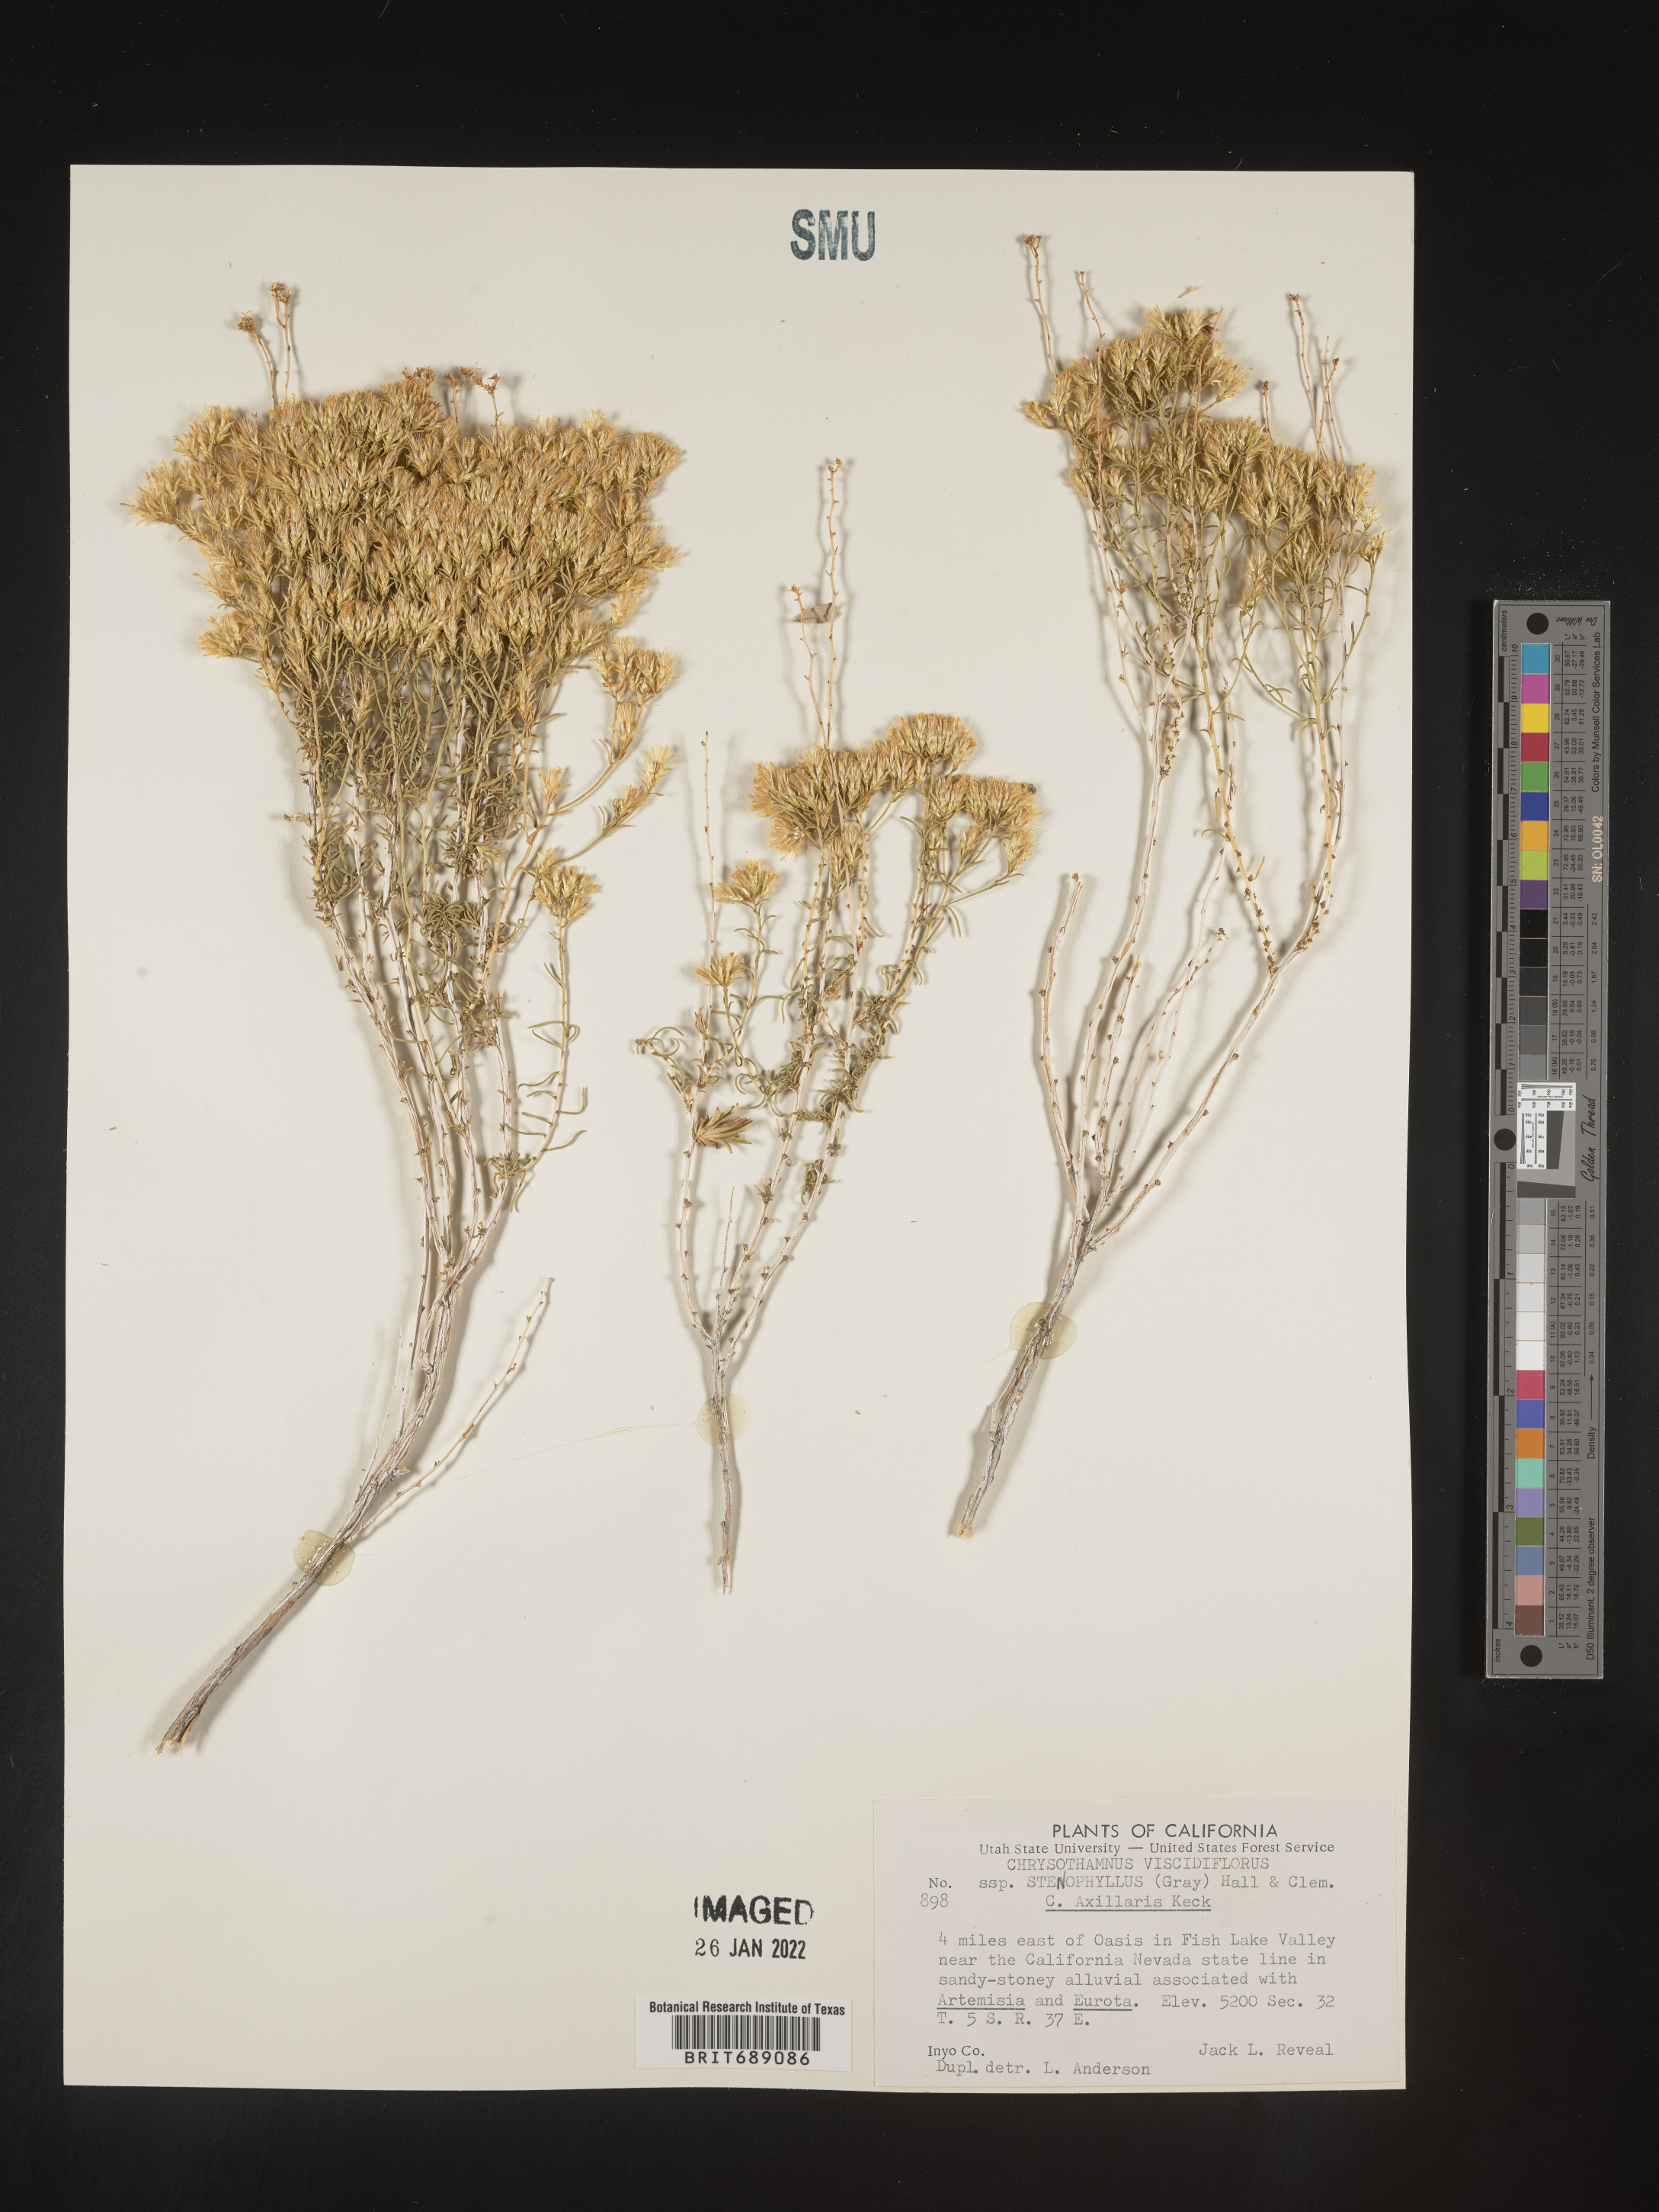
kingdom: Plantae
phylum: Tracheophyta
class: Magnoliopsida
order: Asterales
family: Asteraceae
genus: Chrysothamnus
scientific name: Chrysothamnus viscidiflorus
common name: Yellow rabbitbrush
